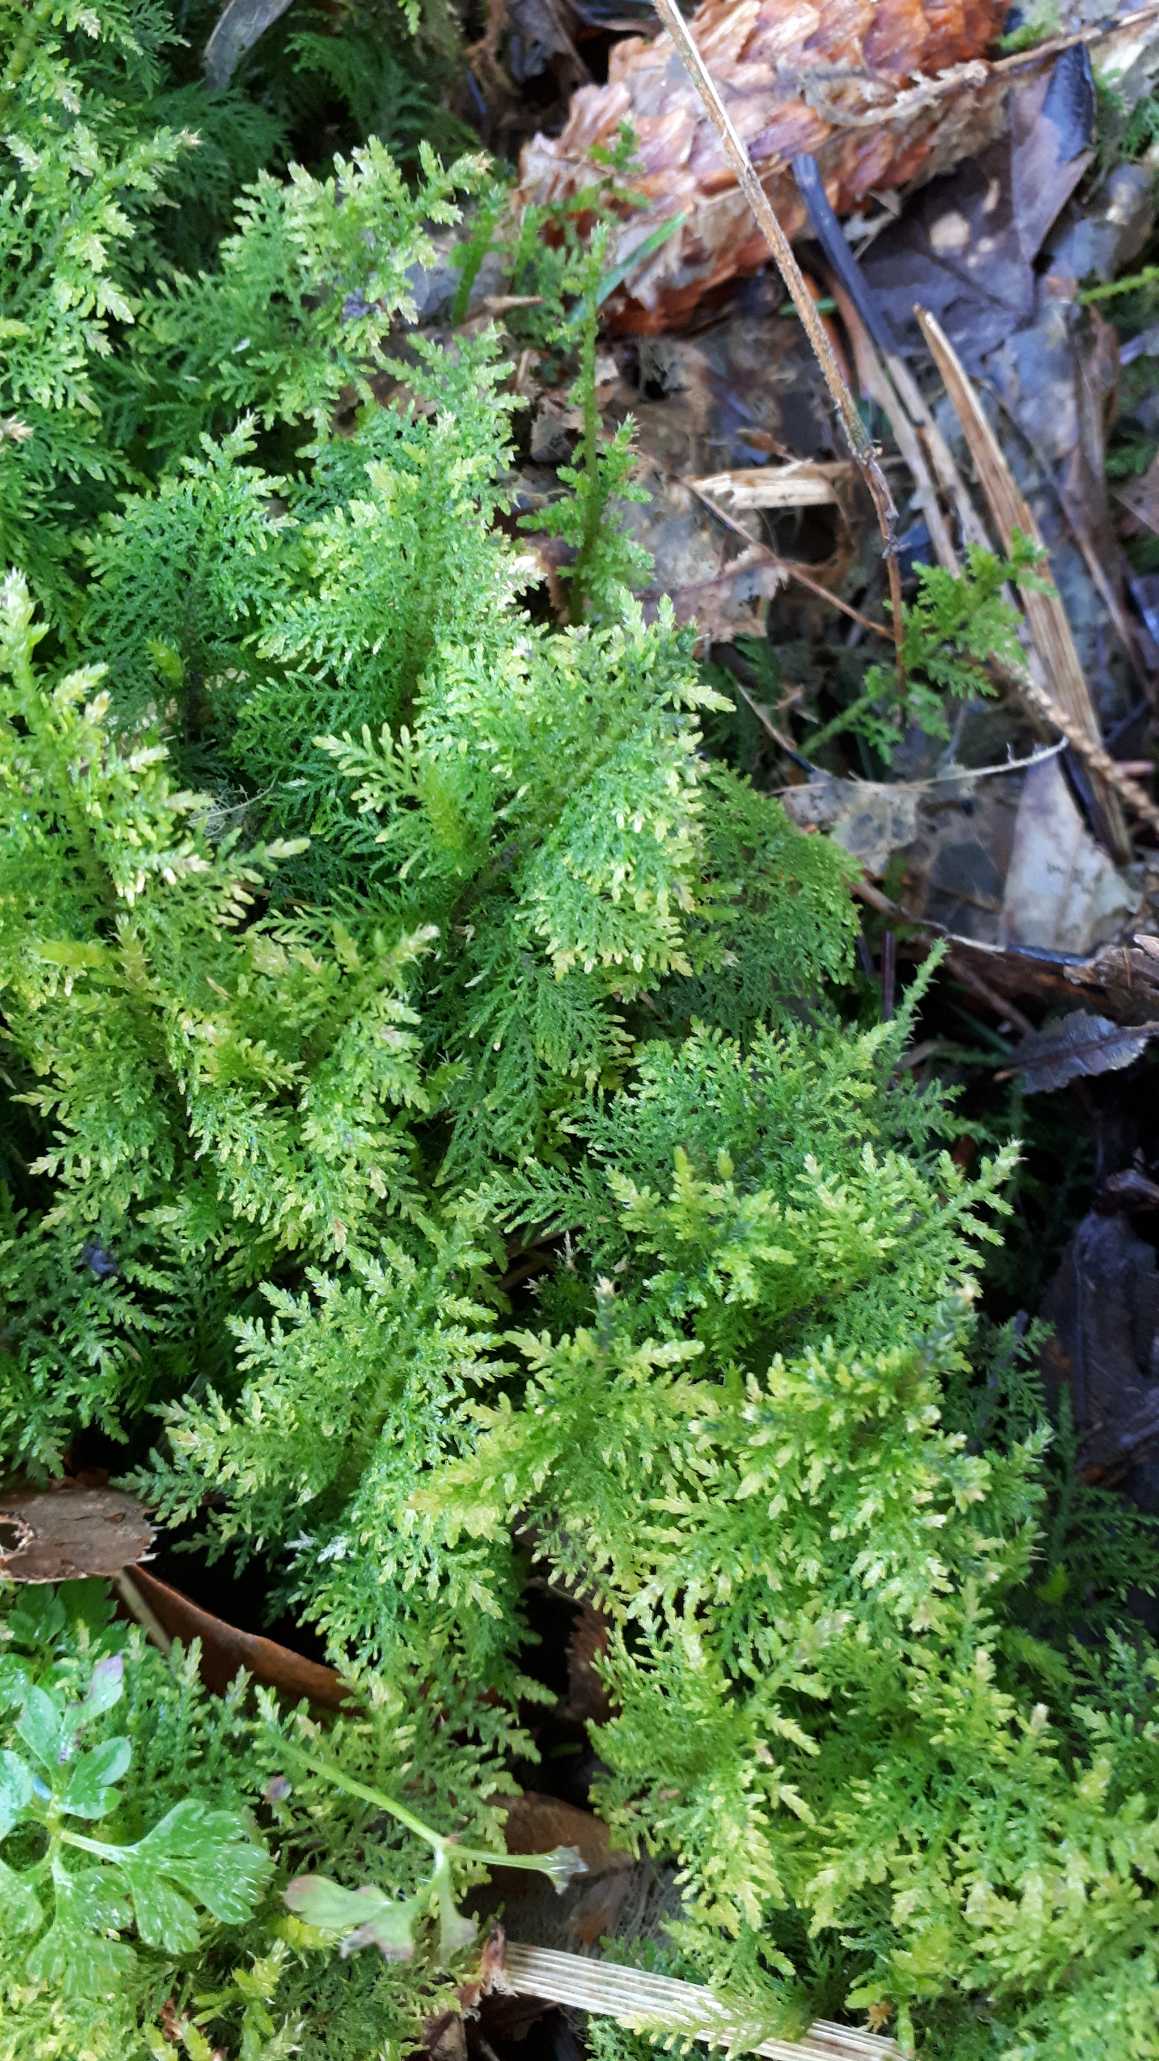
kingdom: Plantae
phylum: Bryophyta
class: Bryopsida
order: Hypnales
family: Thuidiaceae
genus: Thuidium
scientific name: Thuidium tamariscinum
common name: Pryd-bregnemos
